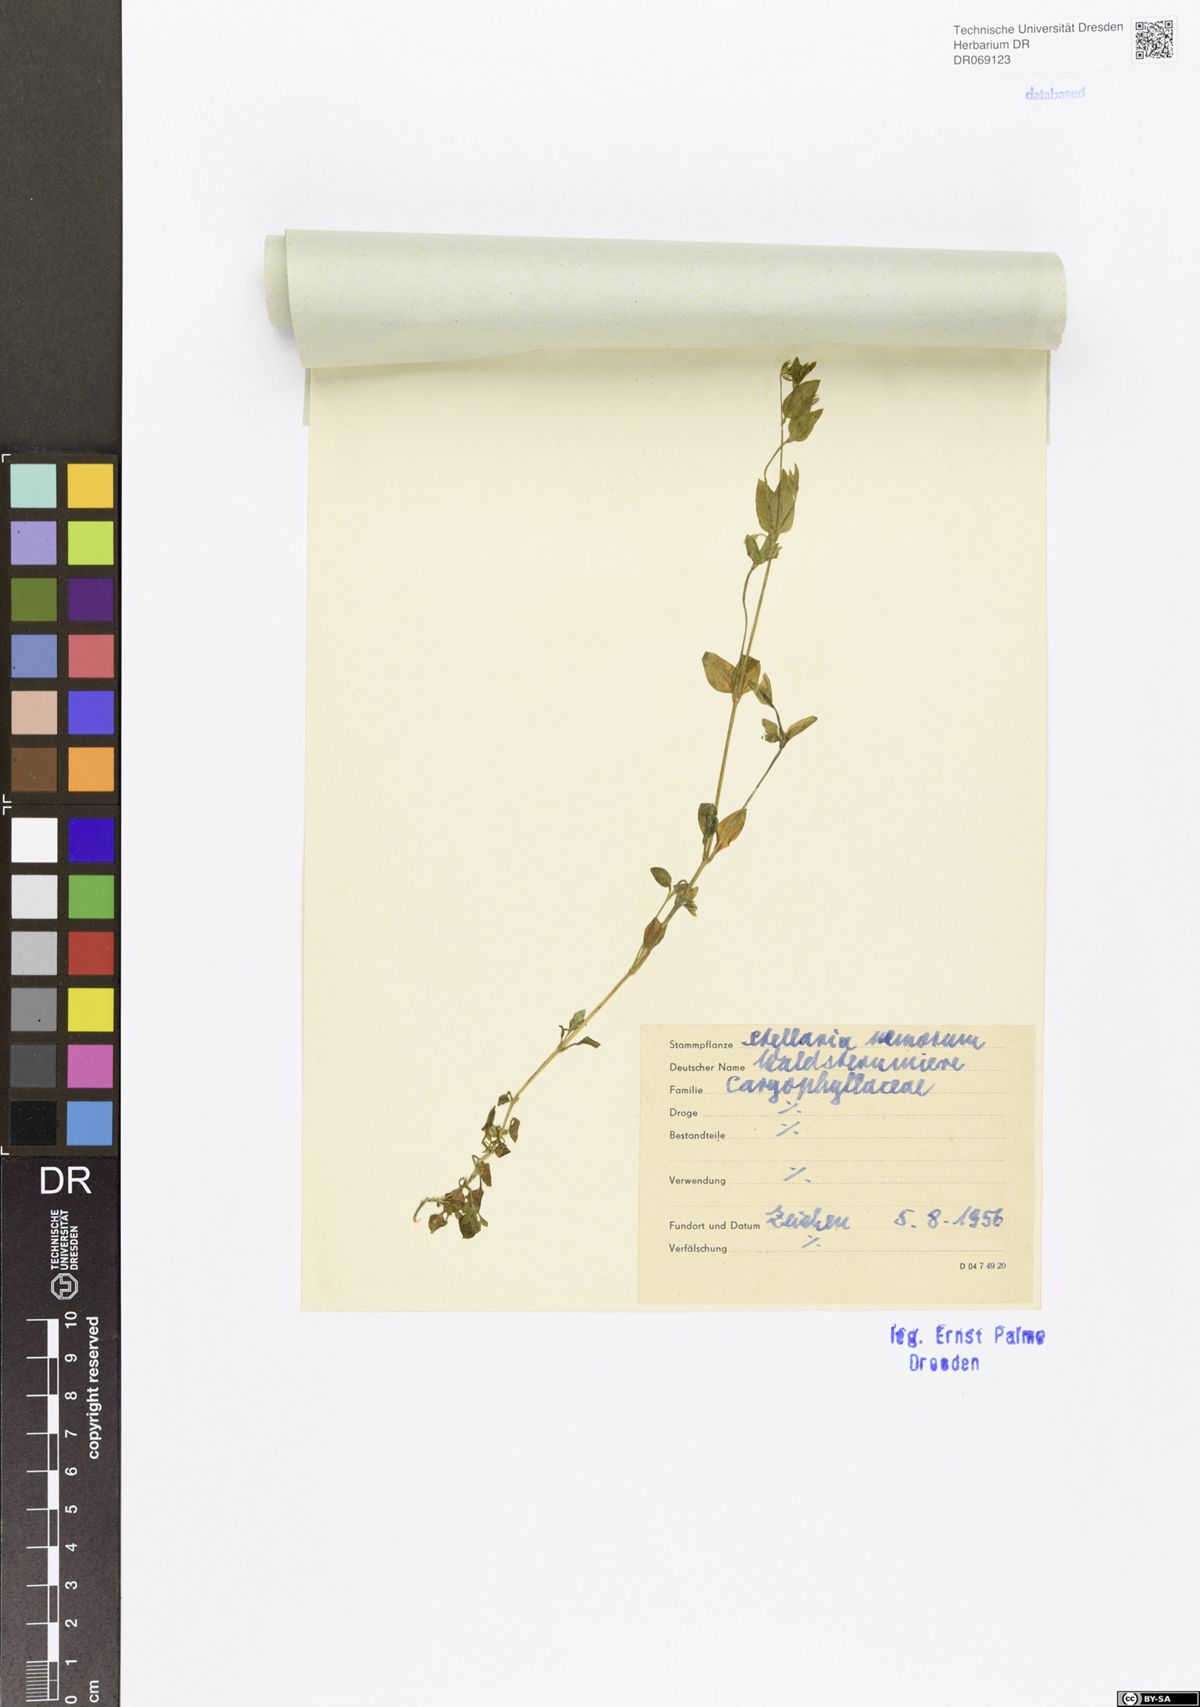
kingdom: Plantae
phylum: Tracheophyta
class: Magnoliopsida
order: Caryophyllales
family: Caryophyllaceae
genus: Stellaria
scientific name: Stellaria nemorum
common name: Wood stitchwort
